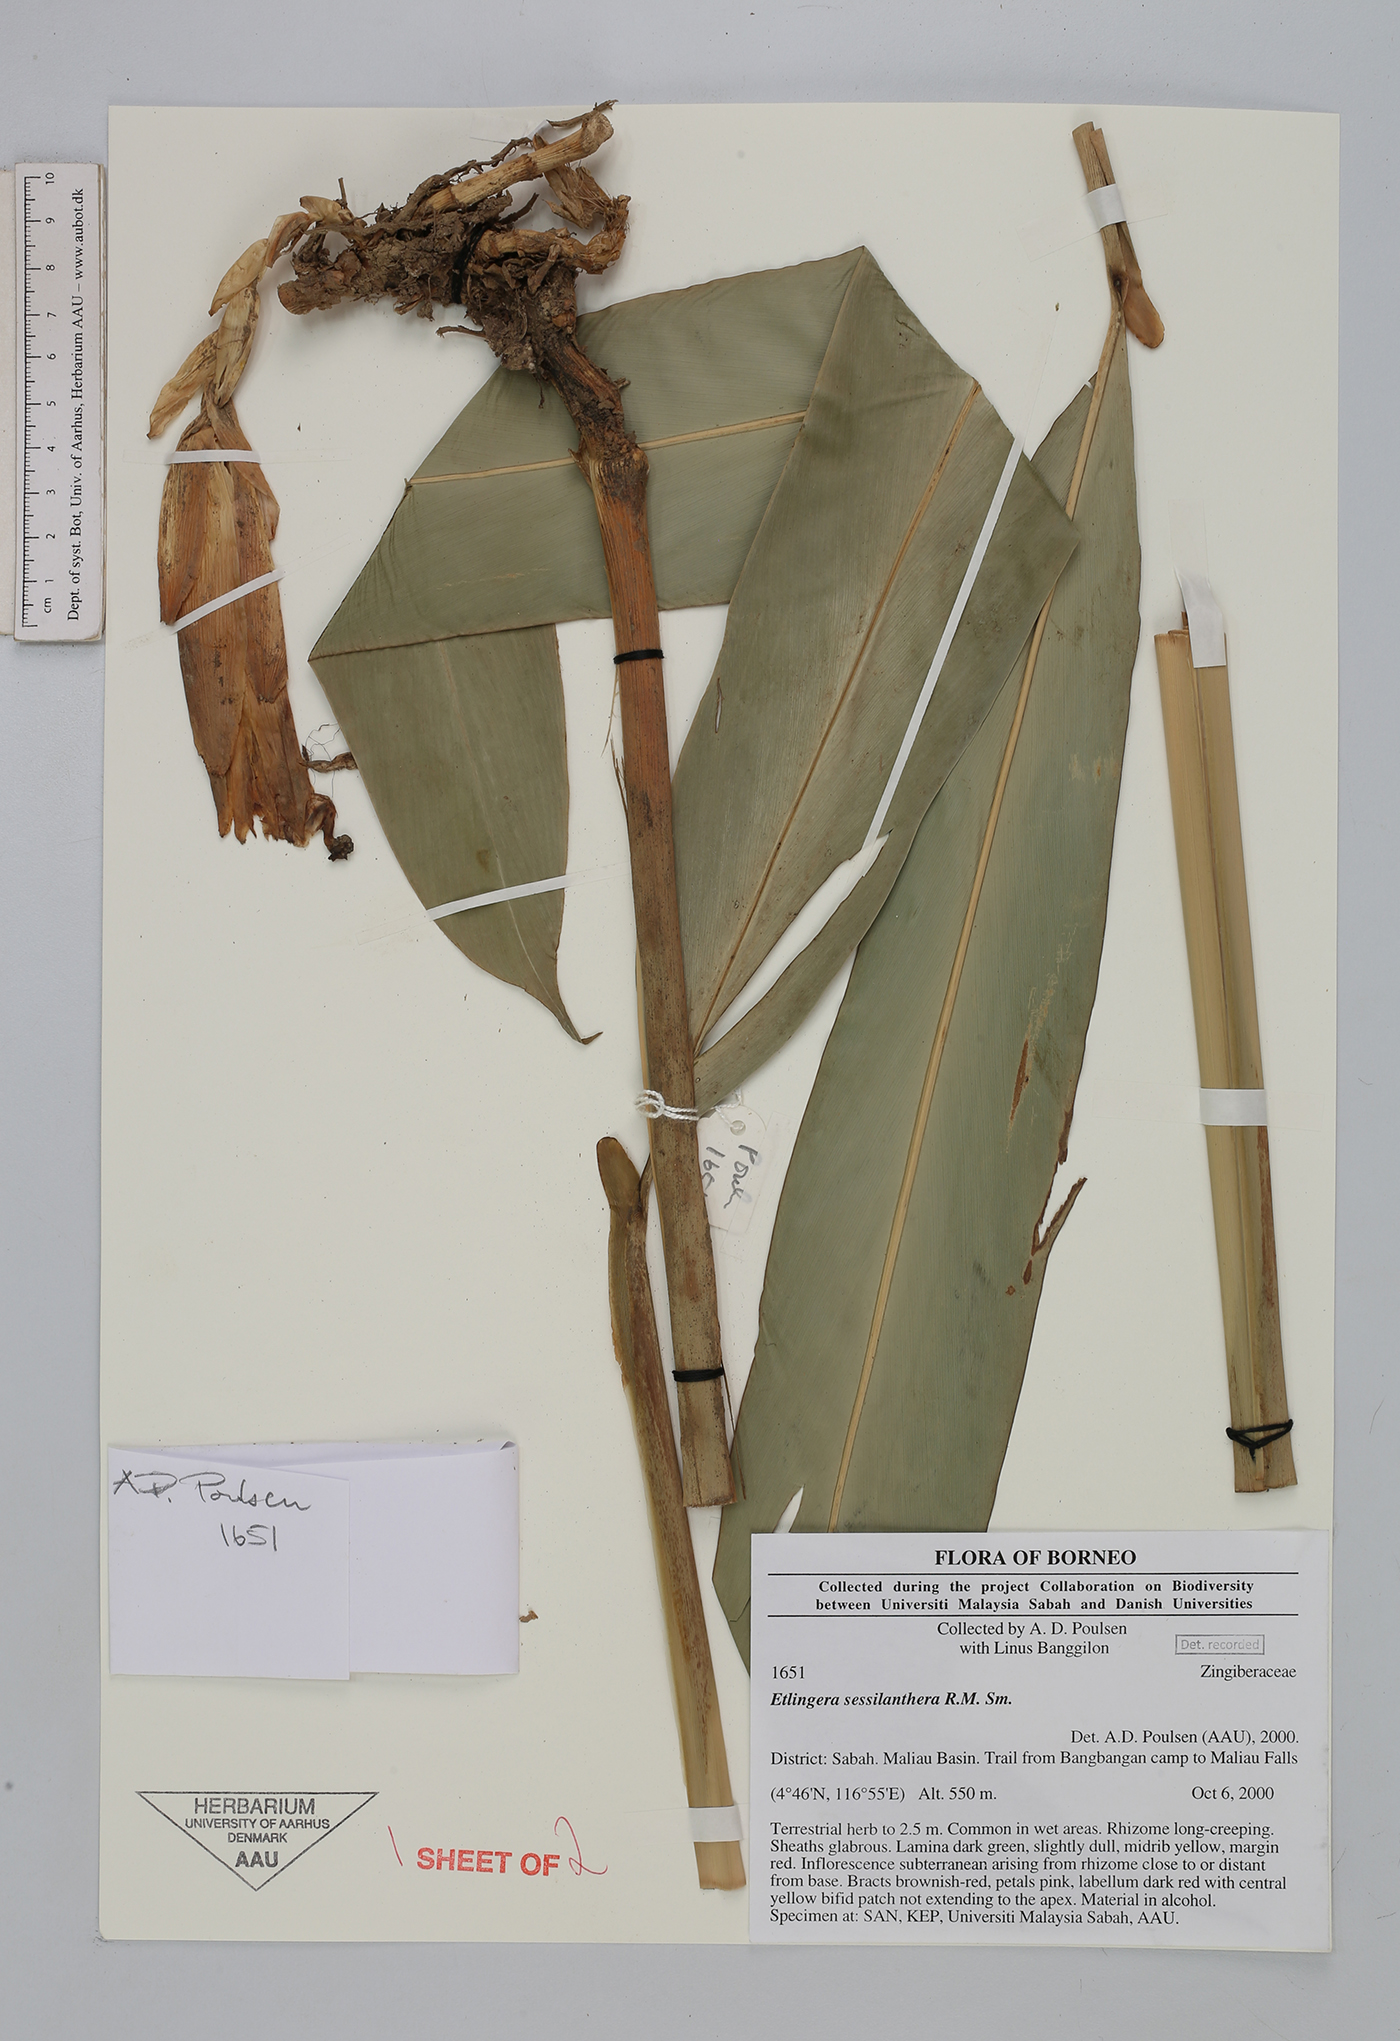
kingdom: Plantae
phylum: Tracheophyta
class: Liliopsida
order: Zingiberales
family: Zingiberaceae
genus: Etlingera
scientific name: Etlingera sessilanthera
